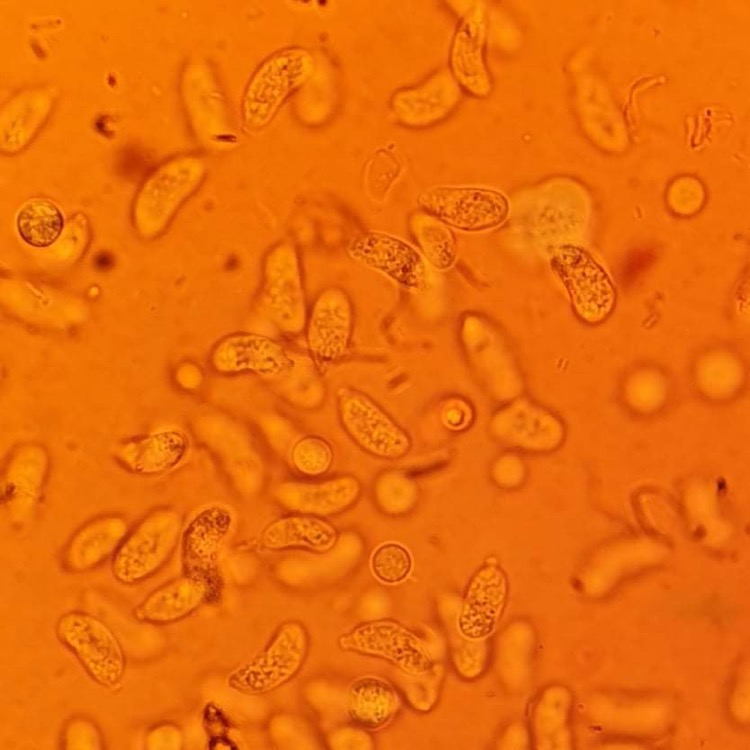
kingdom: Fungi
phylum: Basidiomycota
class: Agaricomycetes
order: Auriculariales
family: Hyaloriaceae
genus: Myxarium
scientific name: Myxarium hyalinum
